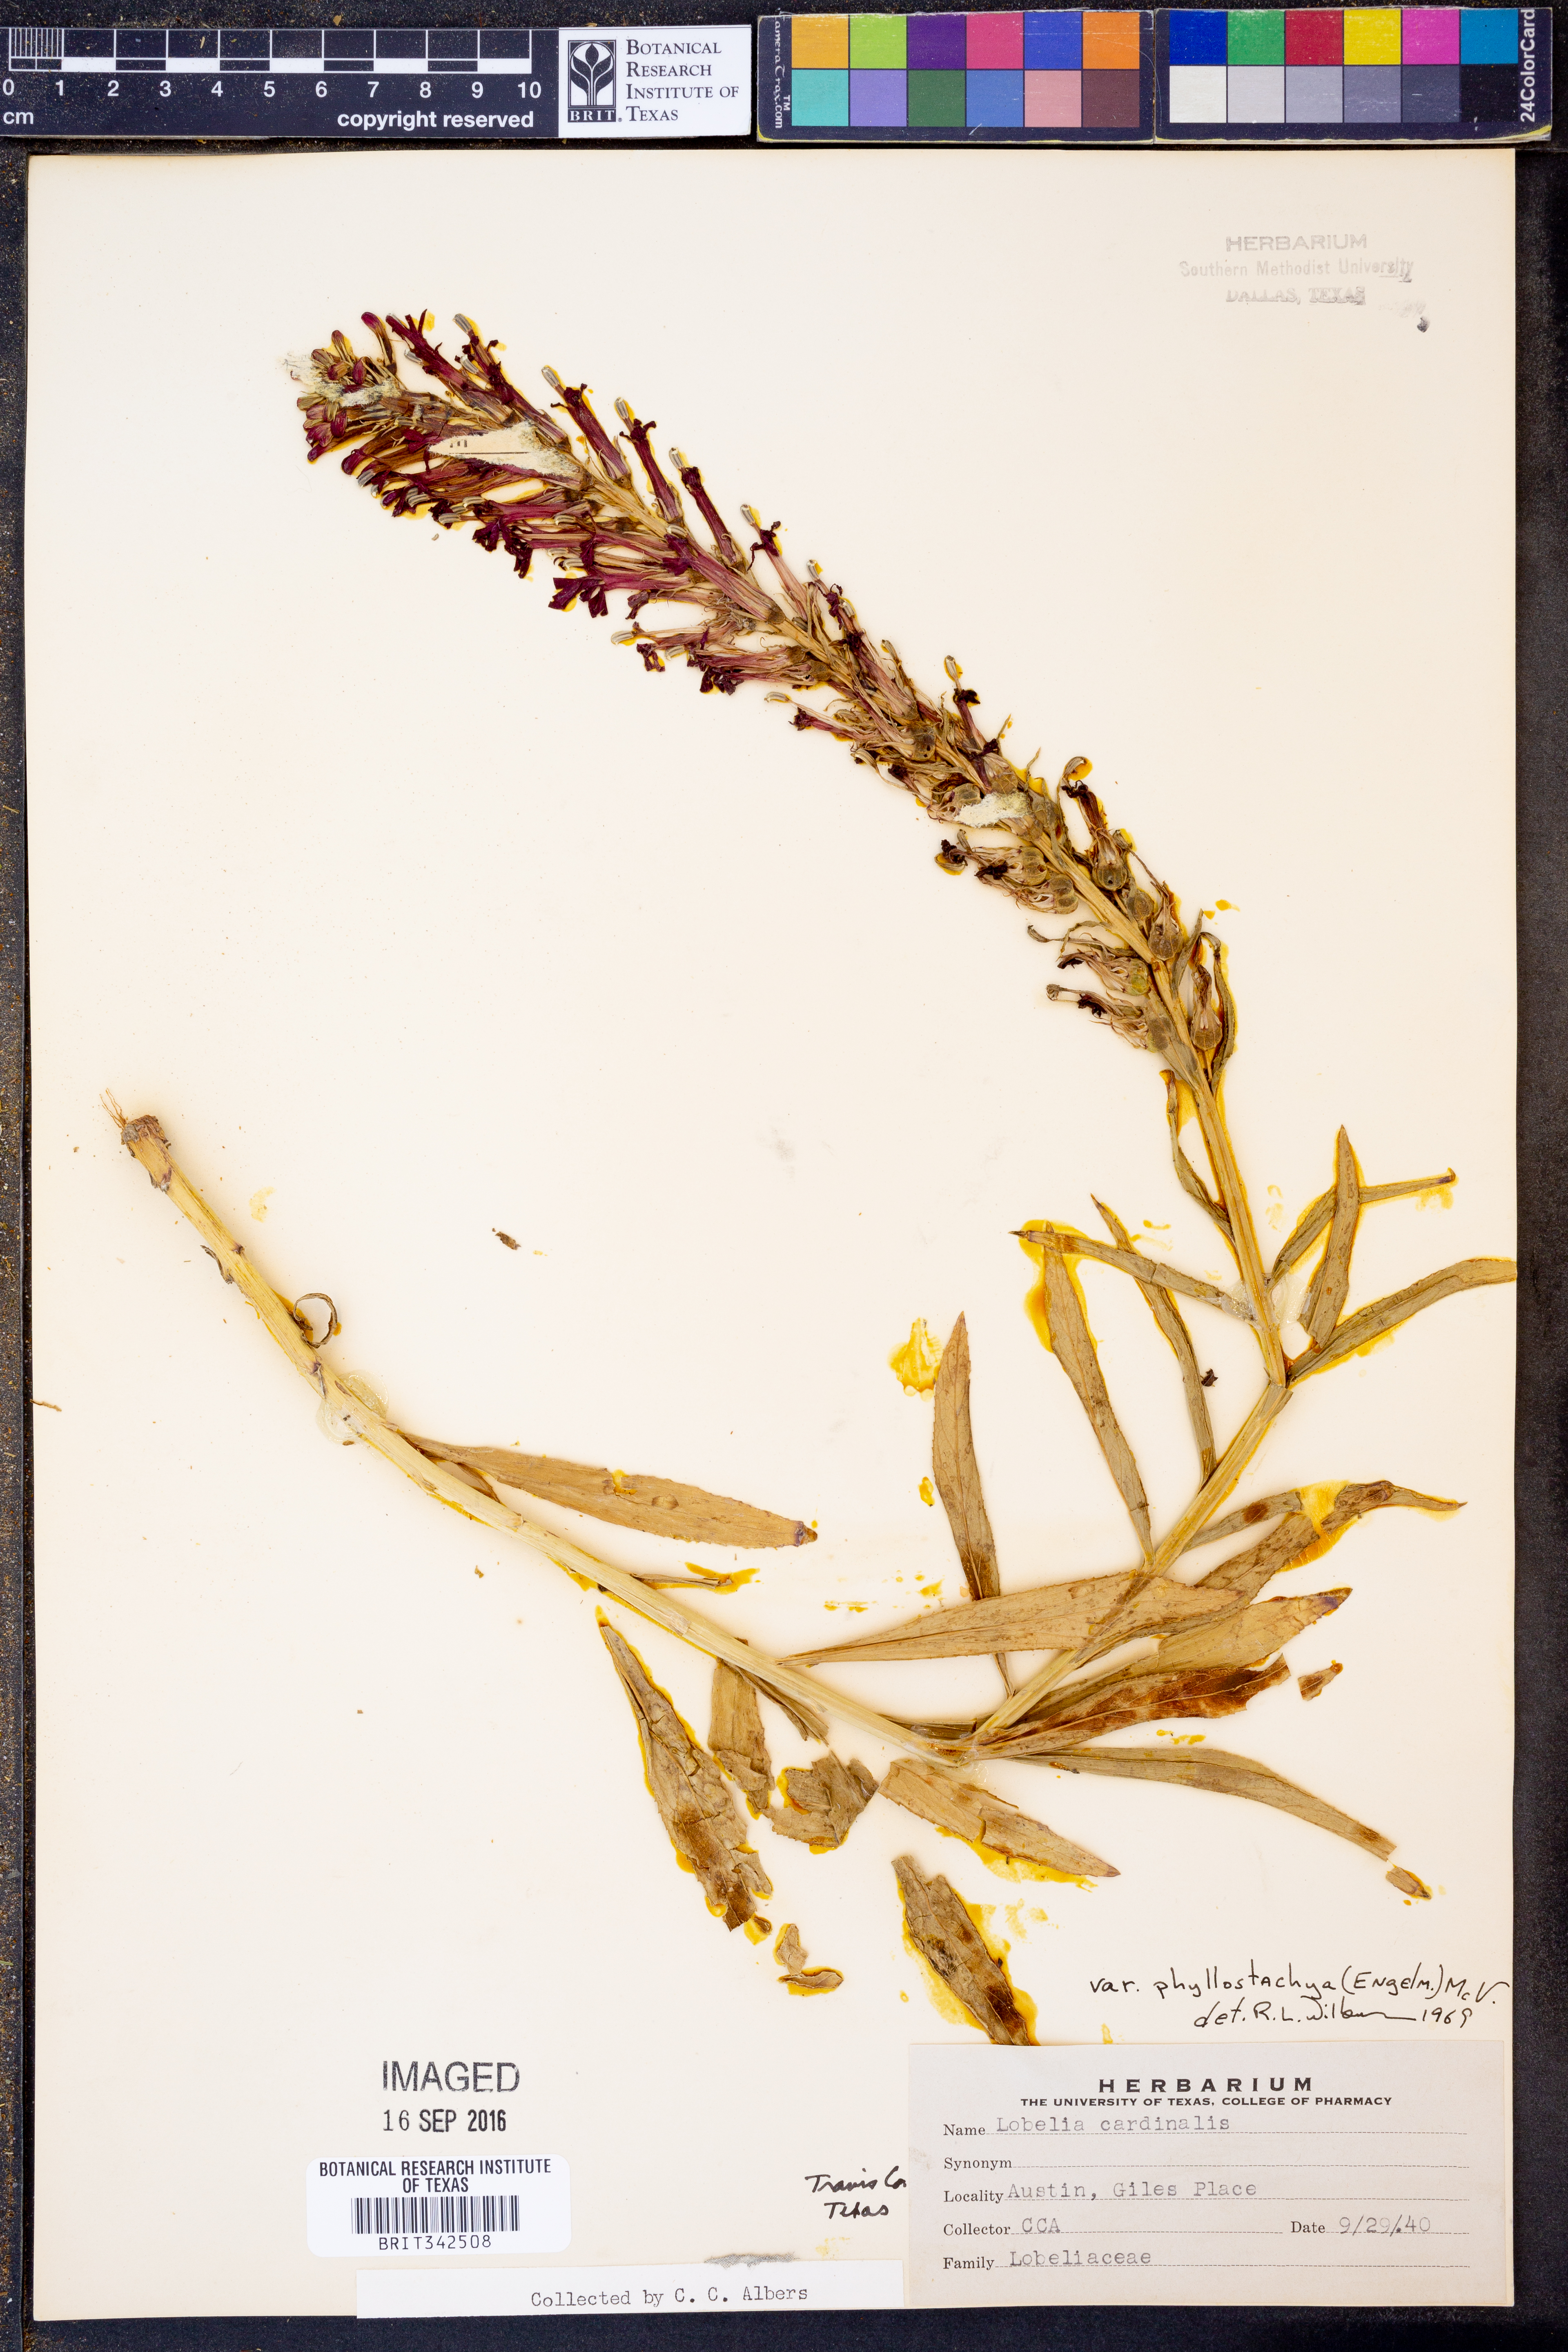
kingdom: Plantae
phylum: Tracheophyta
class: Magnoliopsida
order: Asterales
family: Campanulaceae
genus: Lobelia
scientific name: Lobelia cardinalis
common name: Cardinal flower
